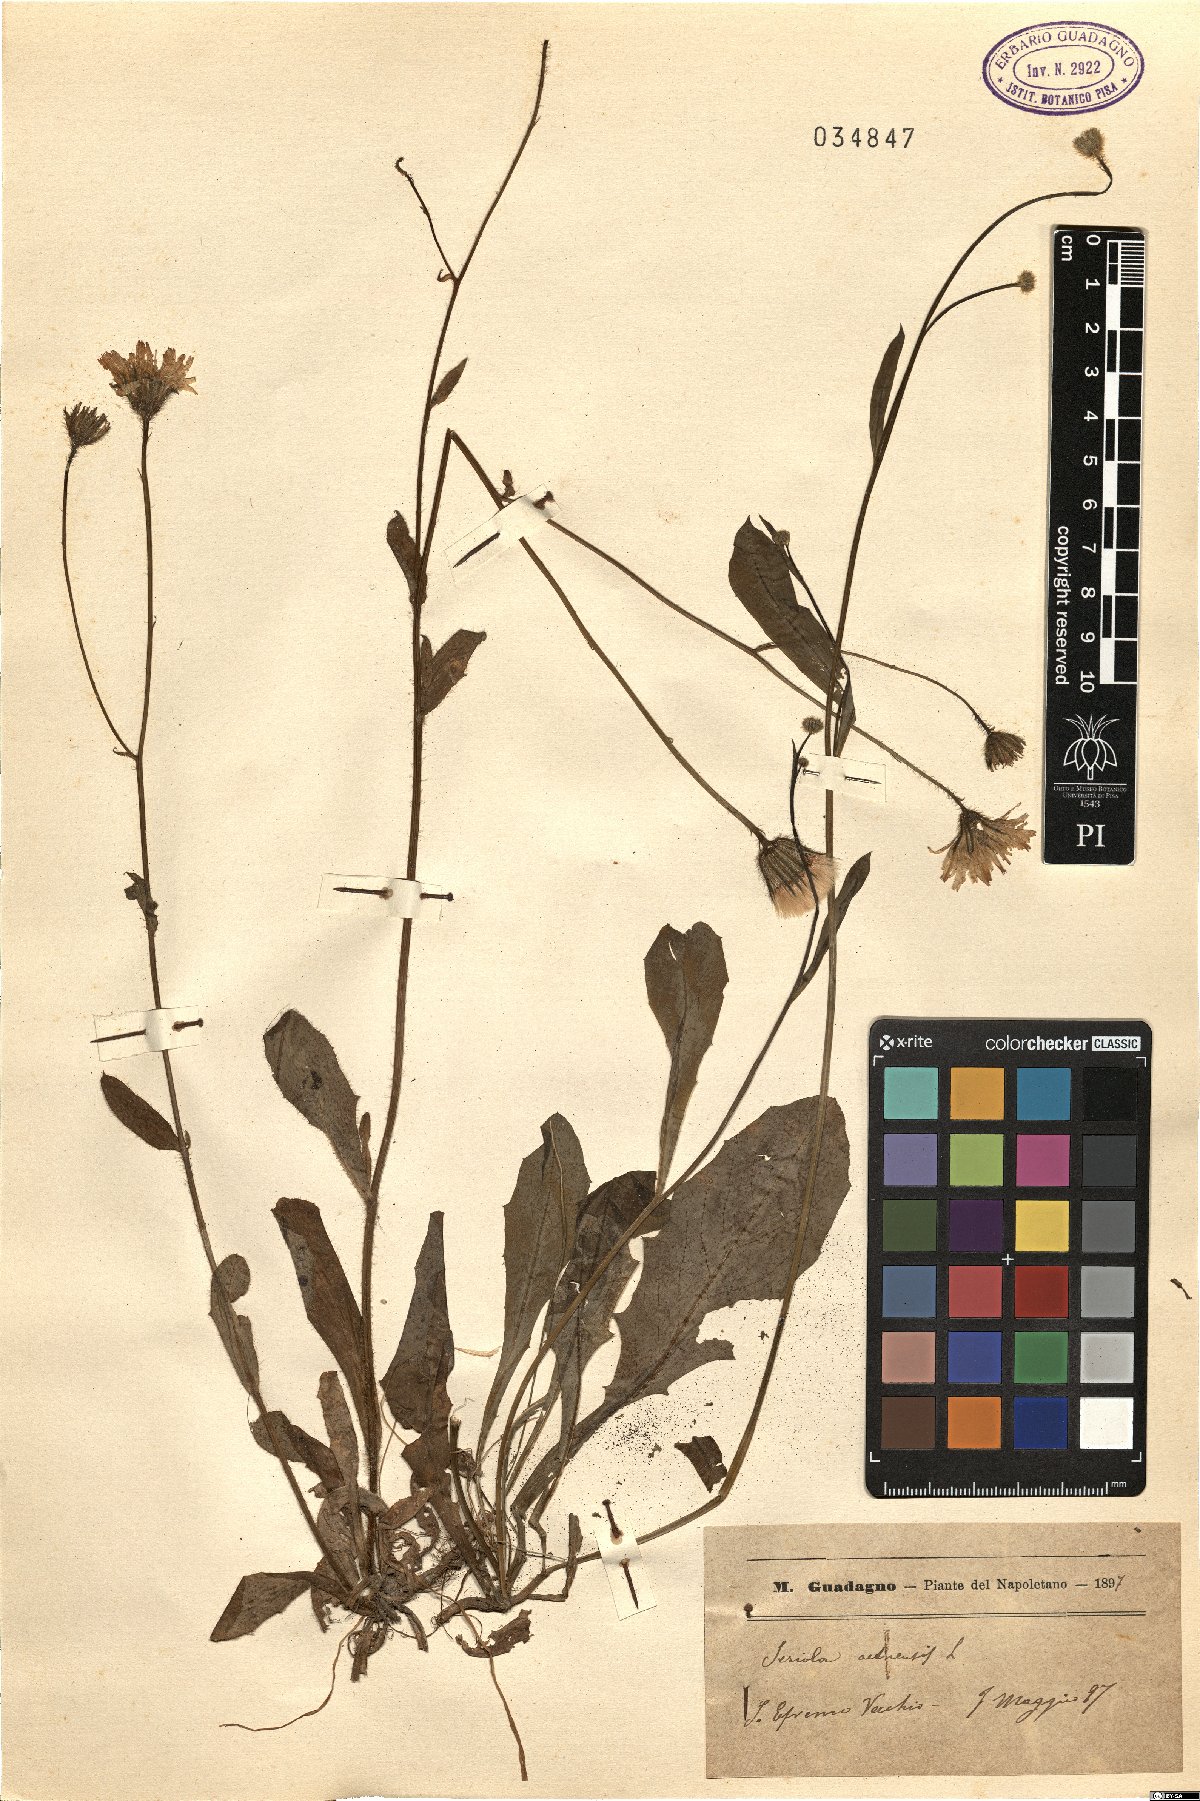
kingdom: Plantae
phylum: Tracheophyta
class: Magnoliopsida
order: Asterales
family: Asteraceae
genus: Achyrophorus
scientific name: Achyrophorus valdesii
